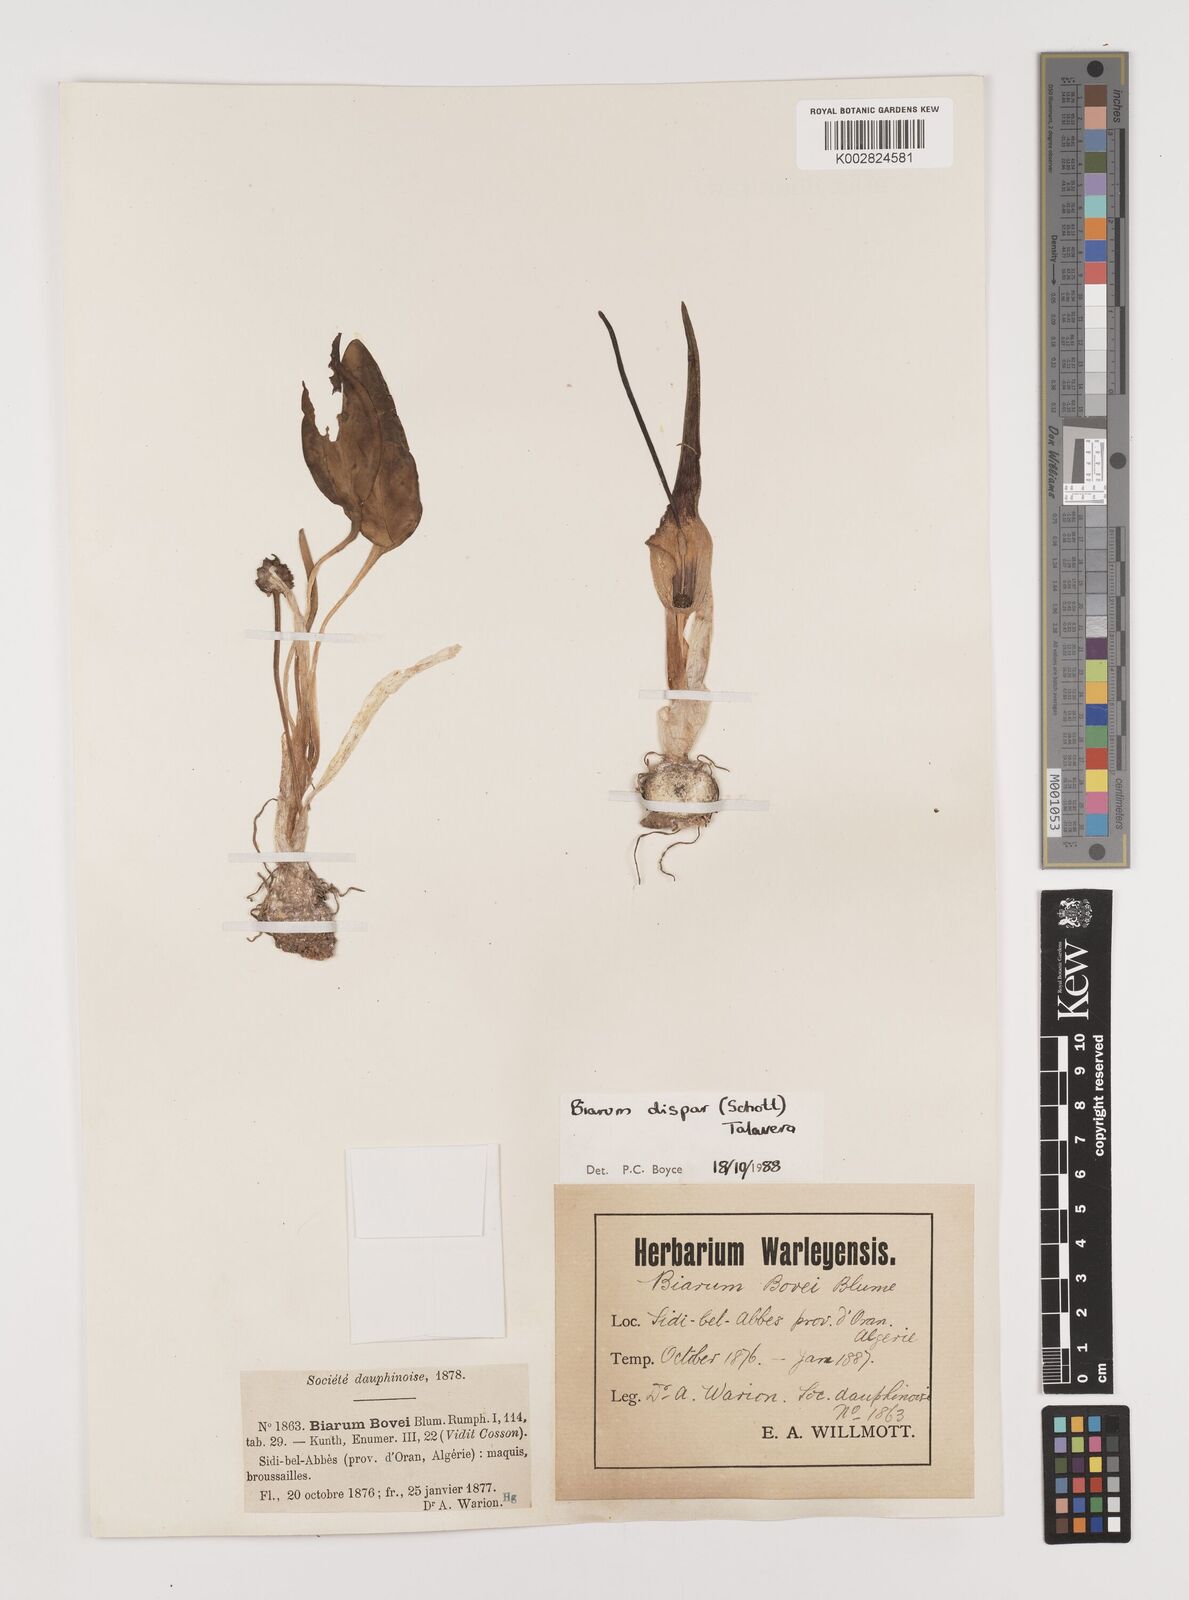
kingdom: Plantae
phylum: Tracheophyta
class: Liliopsida
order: Alismatales
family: Araceae
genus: Biarum
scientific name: Biarum dispar
